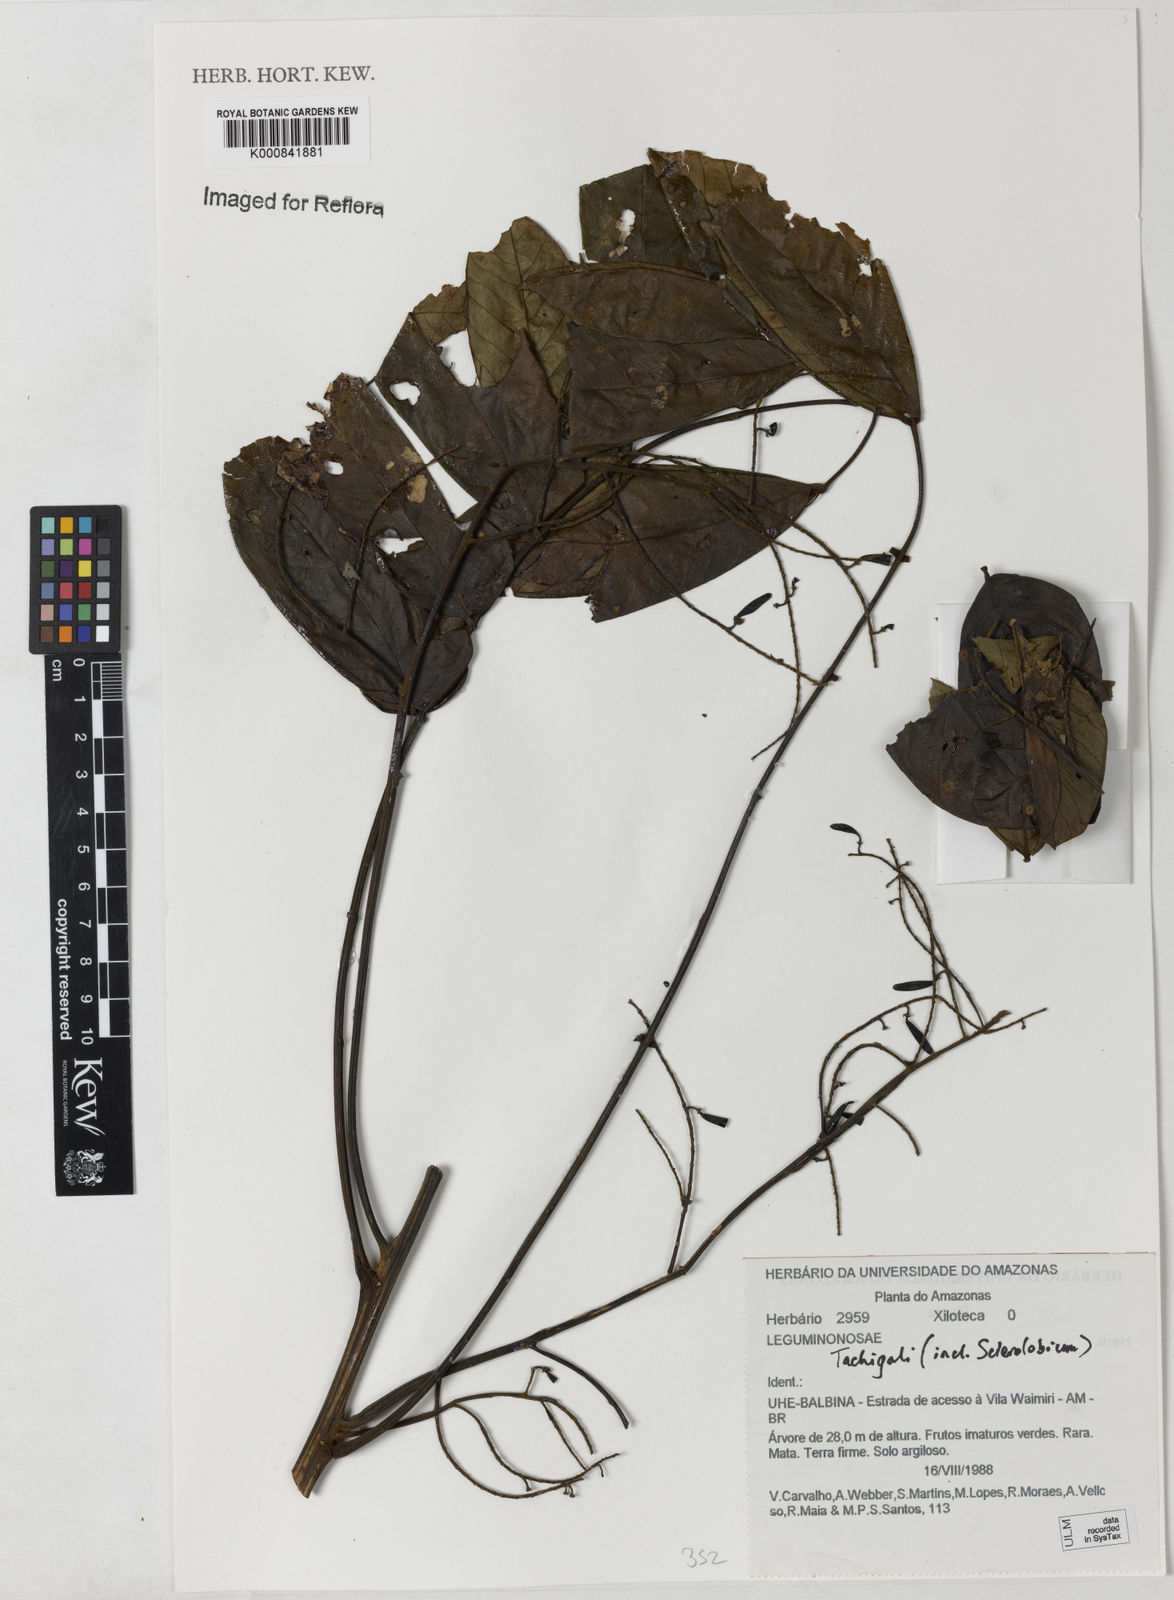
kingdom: Plantae
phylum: Tracheophyta
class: Magnoliopsida
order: Fabales
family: Fabaceae
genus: Tachigali
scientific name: Tachigali
